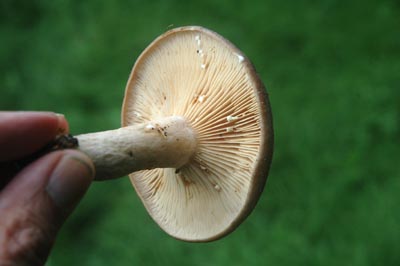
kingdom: Fungi
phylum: Basidiomycota
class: Agaricomycetes
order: Russulales
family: Russulaceae
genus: Lactarius
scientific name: Lactarius circellatus
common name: avnbøg-mælkehat
